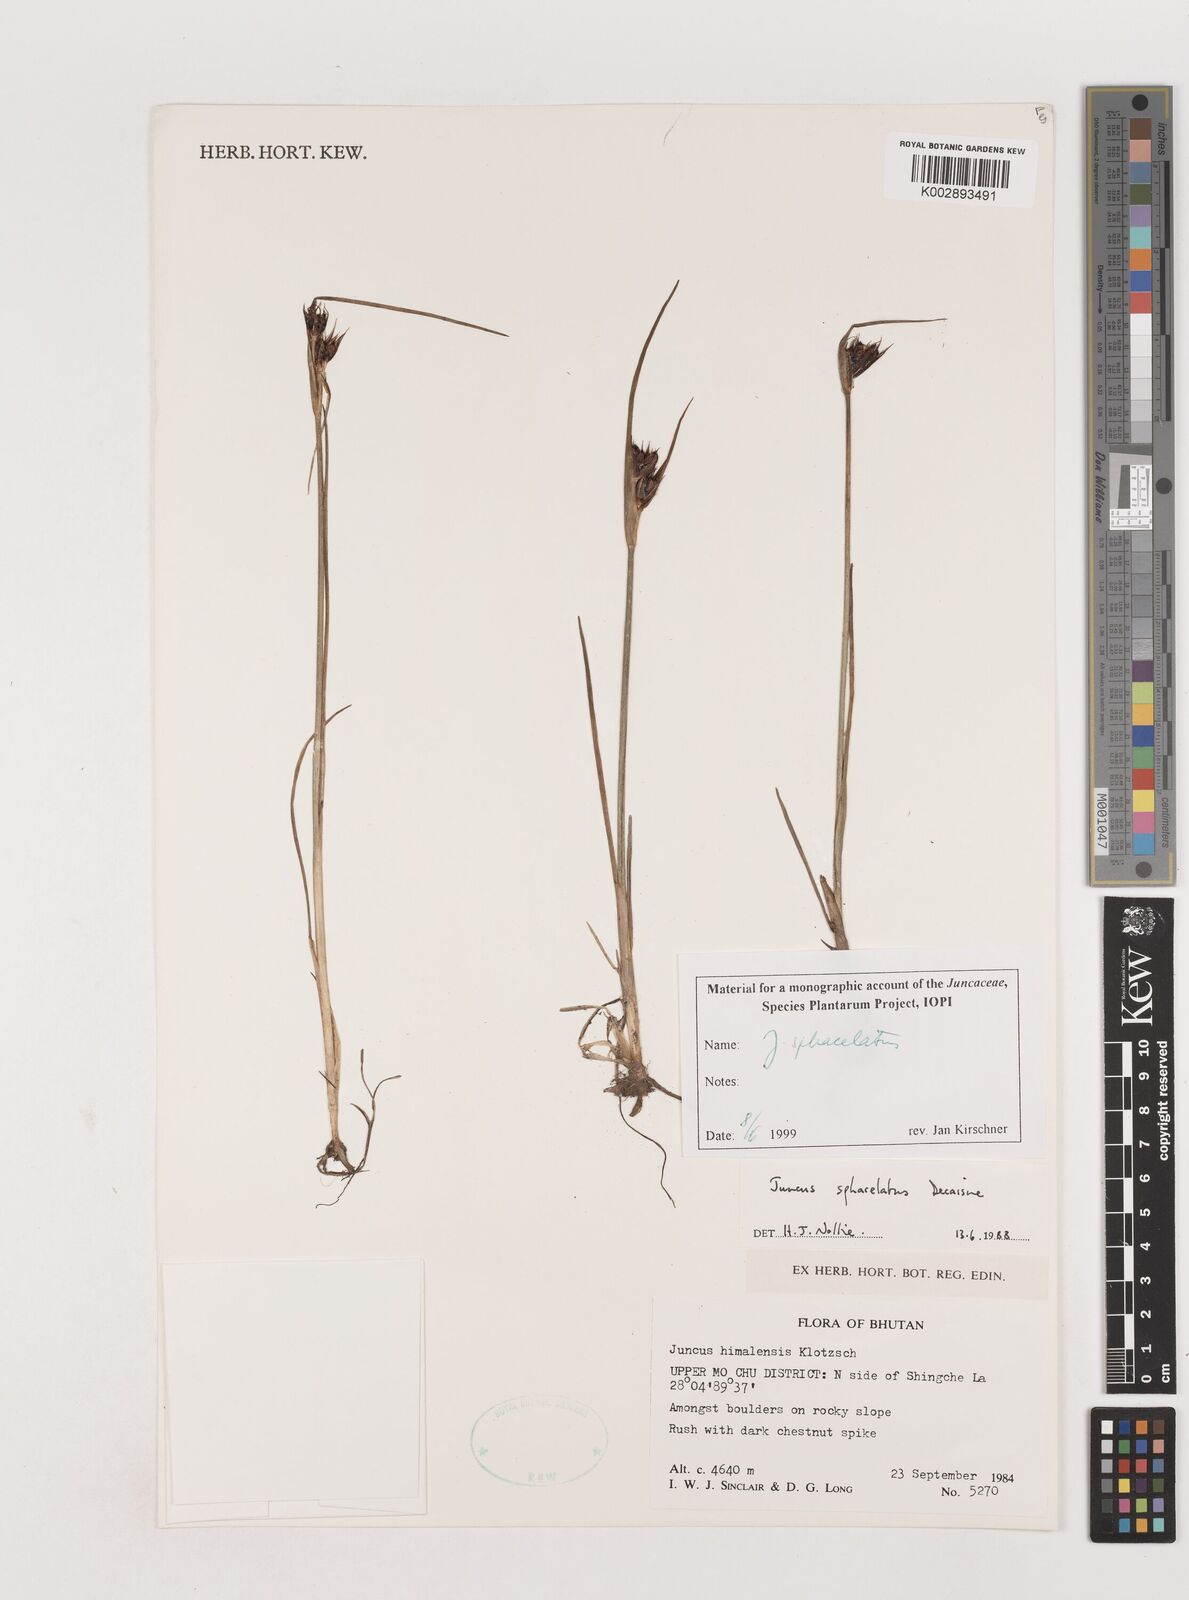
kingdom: Plantae
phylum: Tracheophyta
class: Liliopsida
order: Poales
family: Juncaceae
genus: Juncus
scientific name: Juncus sphacelatus
